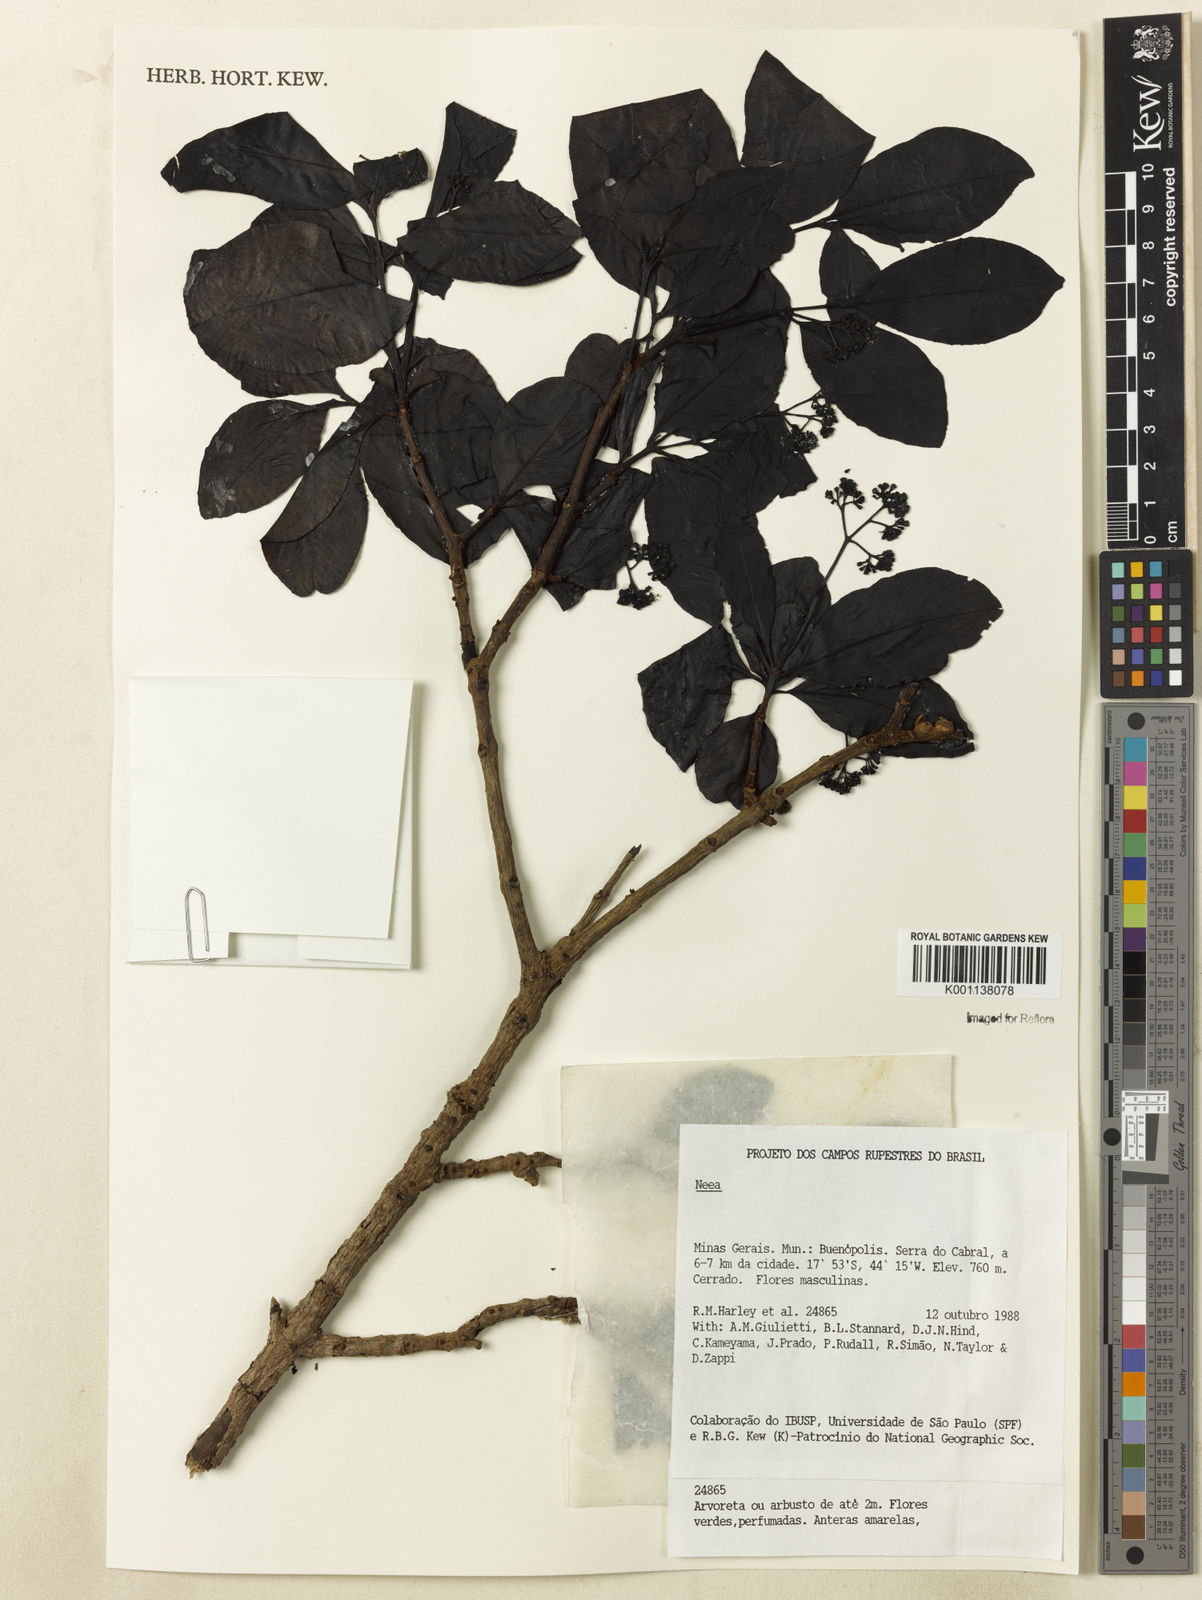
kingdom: Plantae
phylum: Tracheophyta
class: Magnoliopsida
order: Caryophyllales
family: Nyctaginaceae
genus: Neea
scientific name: Neea
